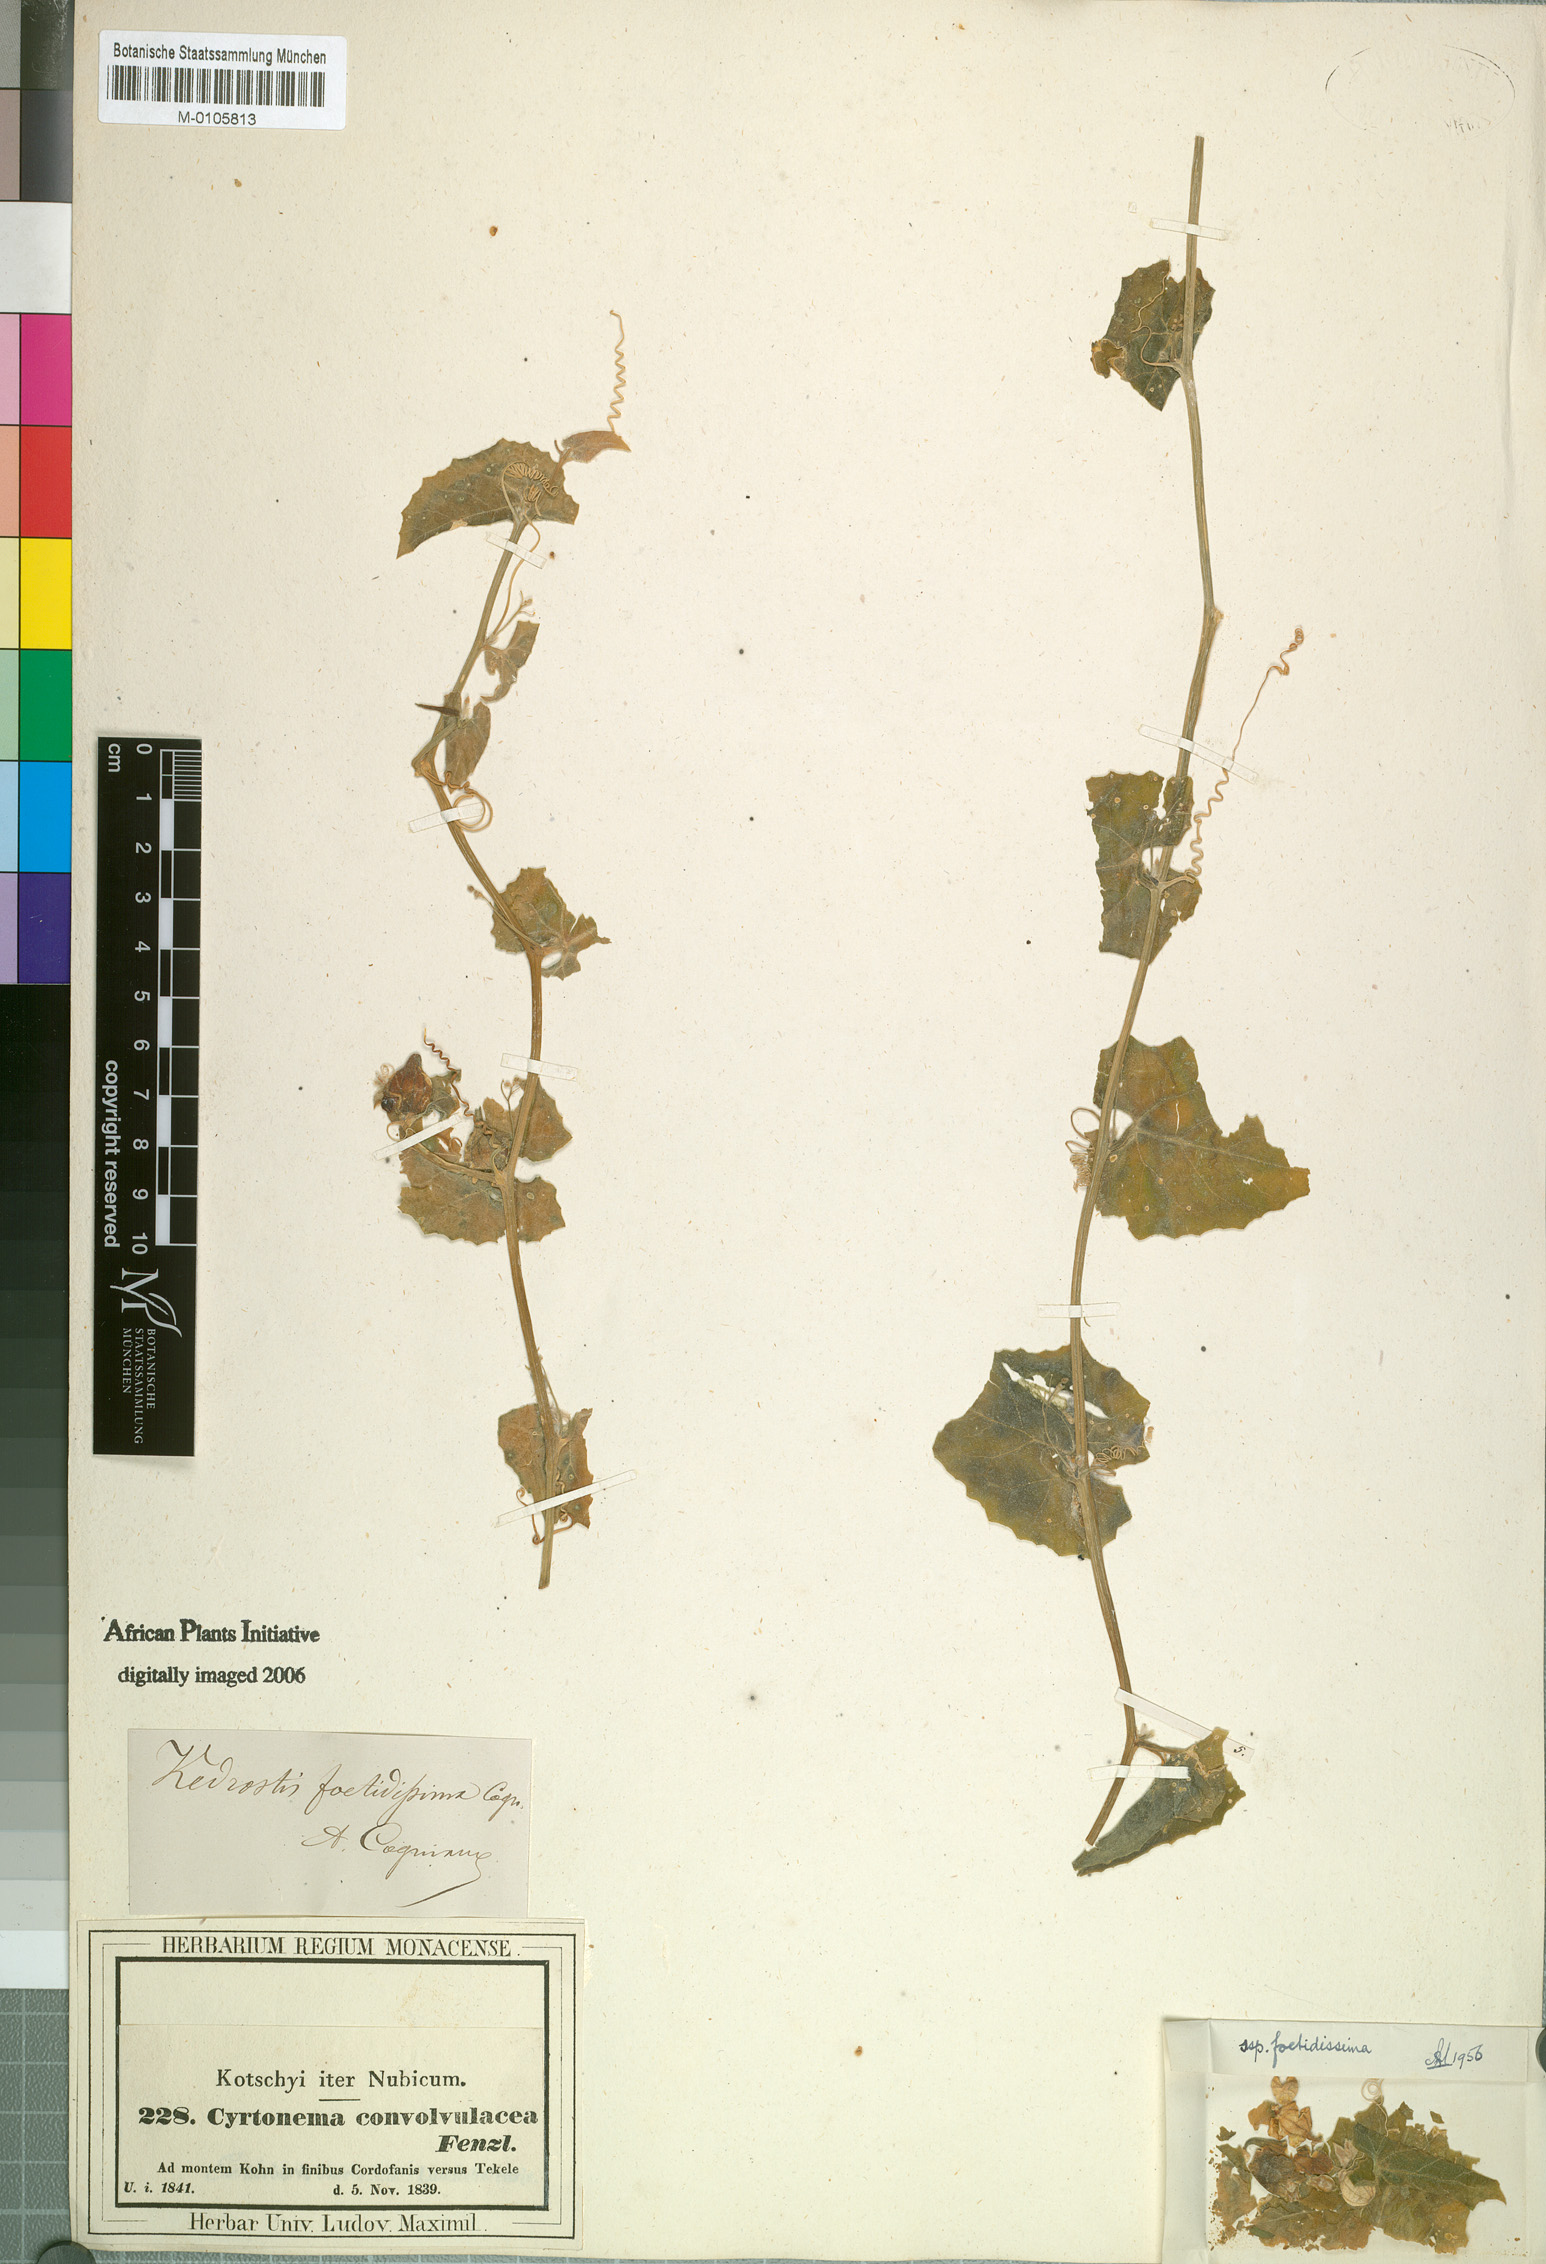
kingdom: Plantae
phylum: Tracheophyta
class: Magnoliopsida
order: Cucurbitales
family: Cucurbitaceae
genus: Kedrostis
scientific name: Kedrostis foetidissima
